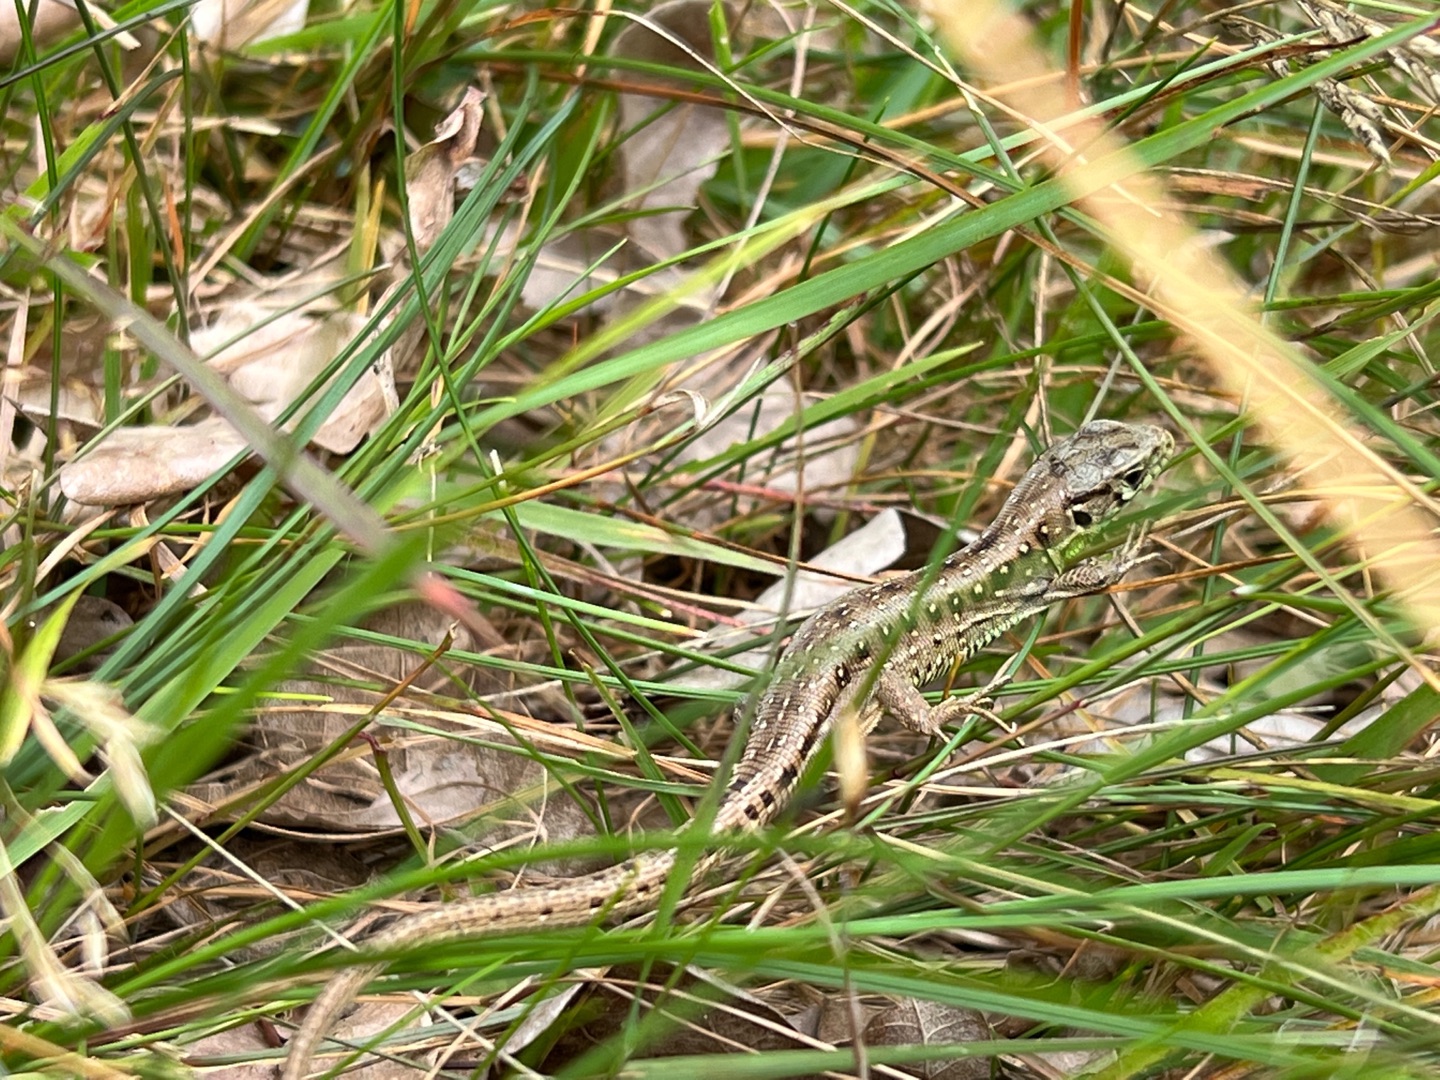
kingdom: Animalia
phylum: Chordata
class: Squamata
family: Lacertidae
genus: Lacerta
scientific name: Lacerta agilis
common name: Markfirben
